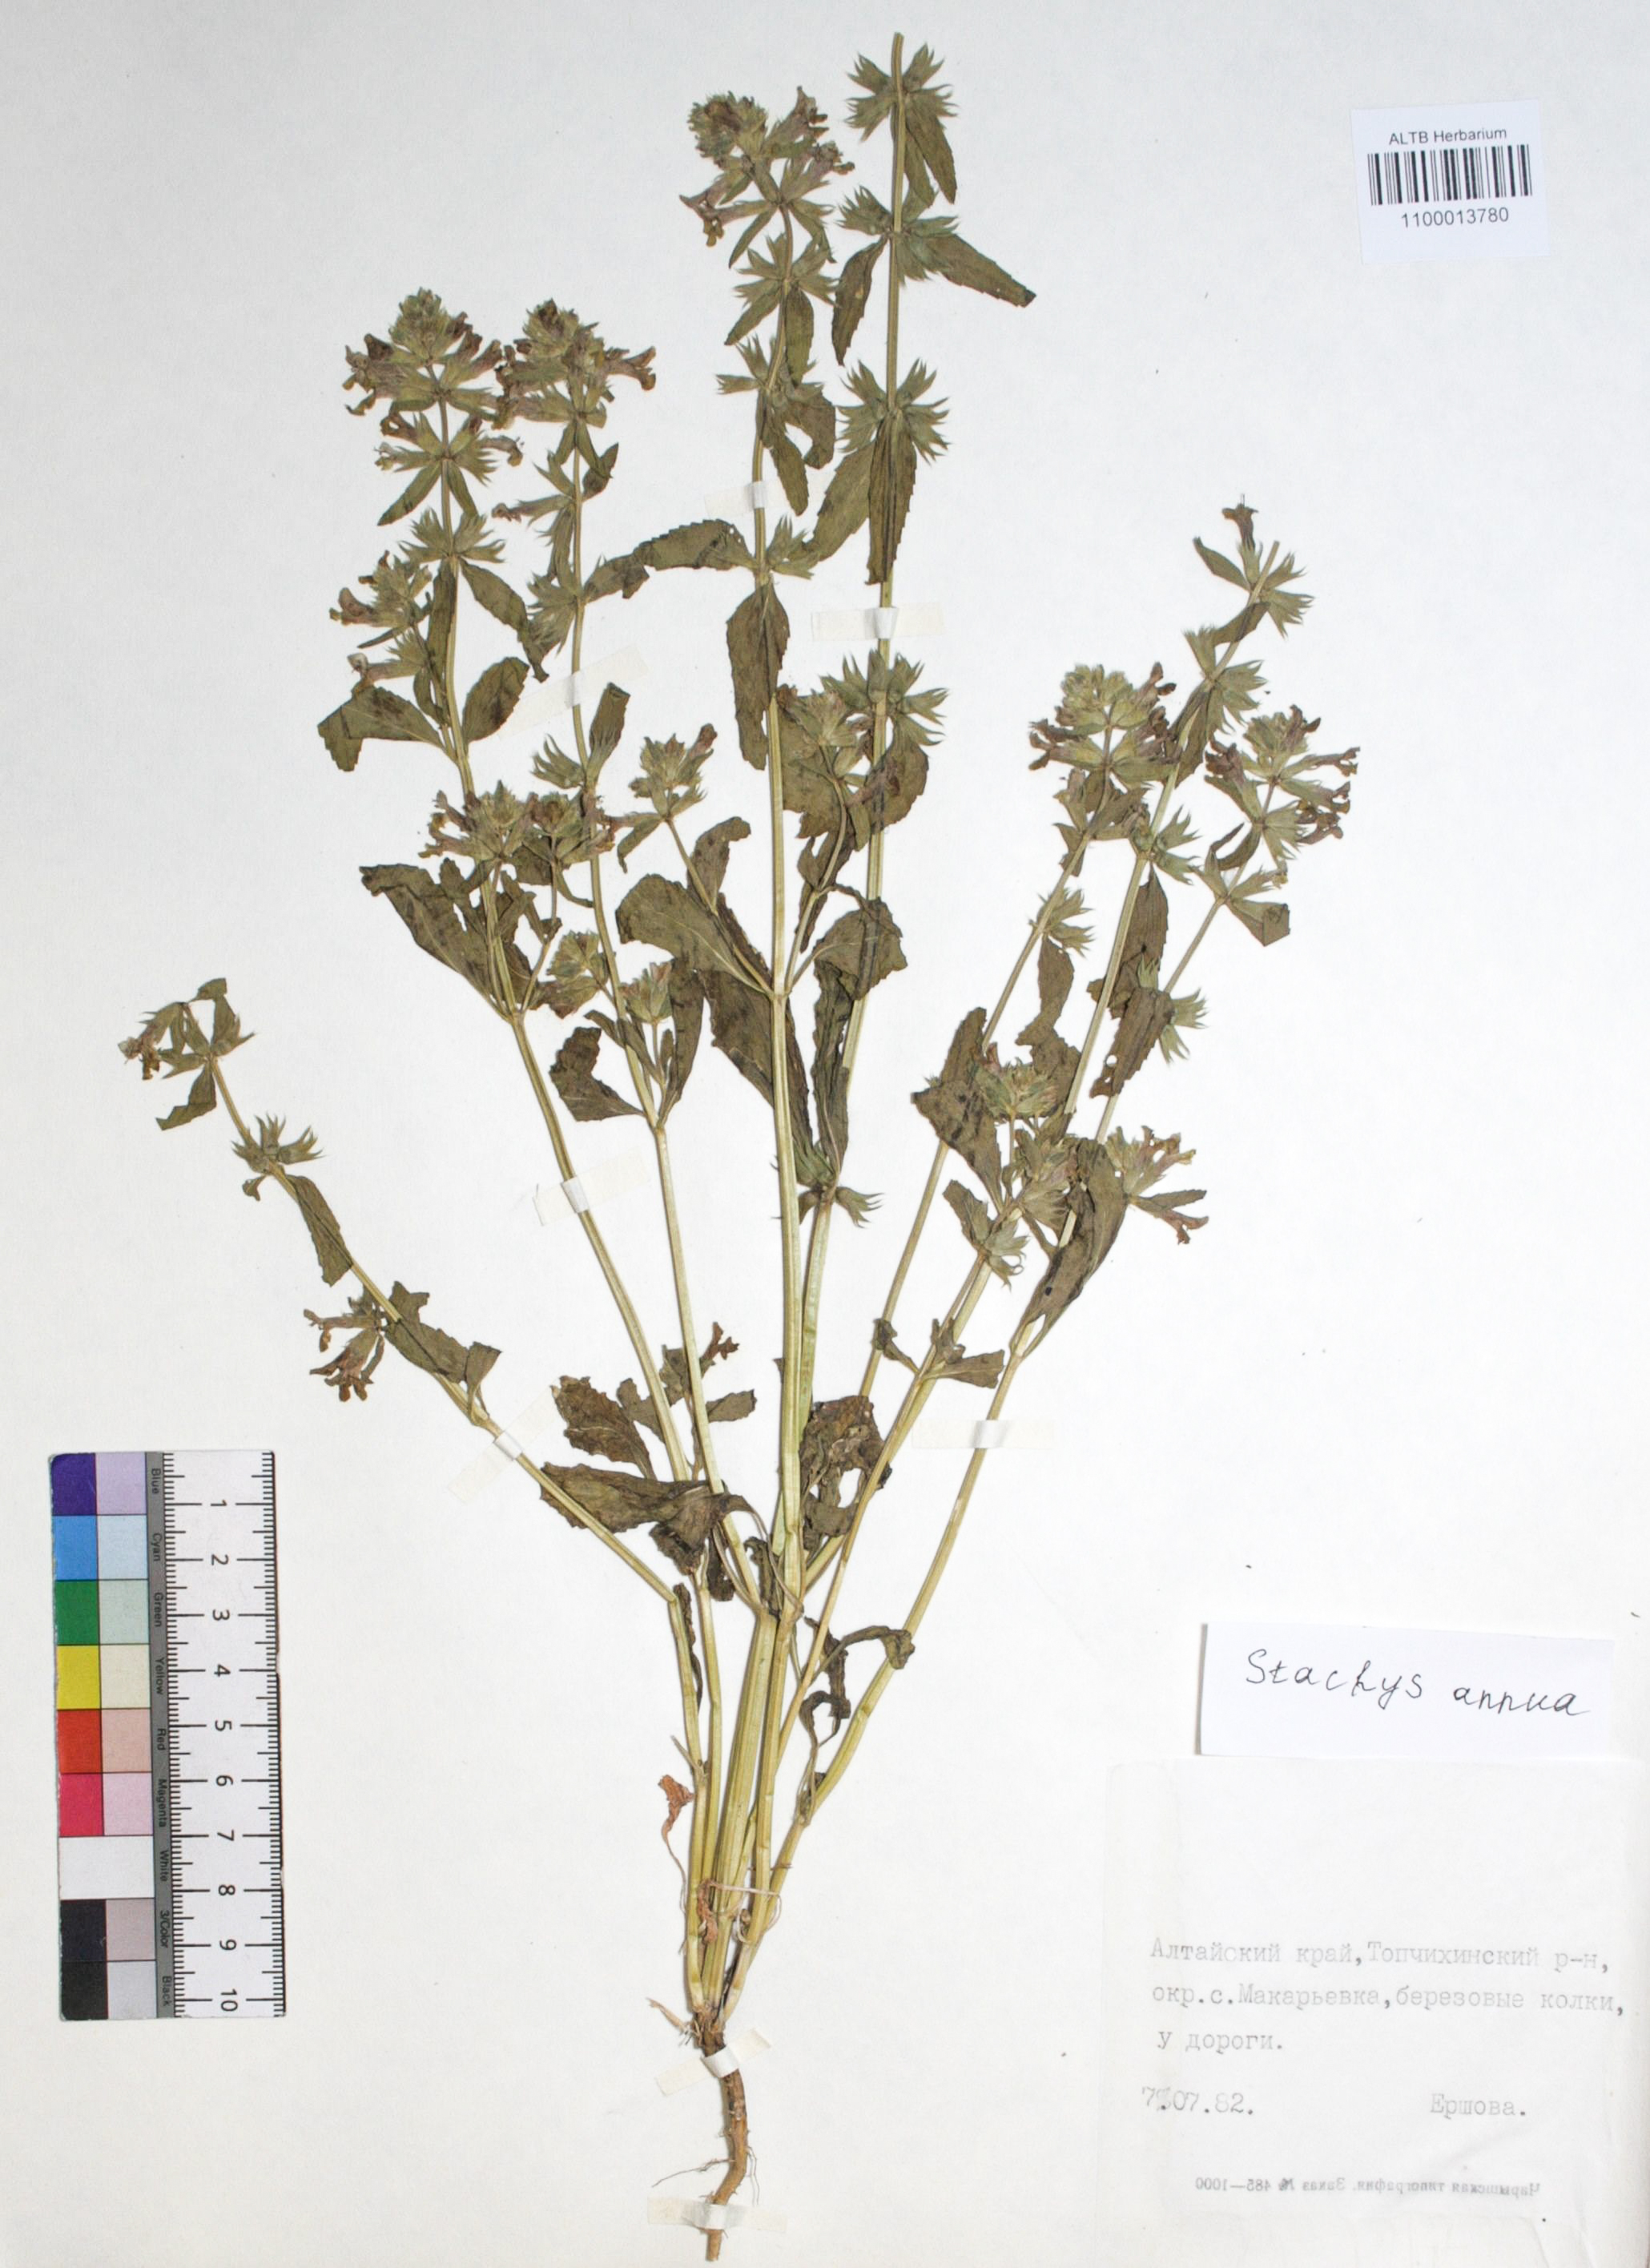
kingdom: Plantae
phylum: Tracheophyta
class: Magnoliopsida
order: Lamiales
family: Lamiaceae
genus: Stachys
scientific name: Stachys annua
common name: Annual yellow-woundwort
